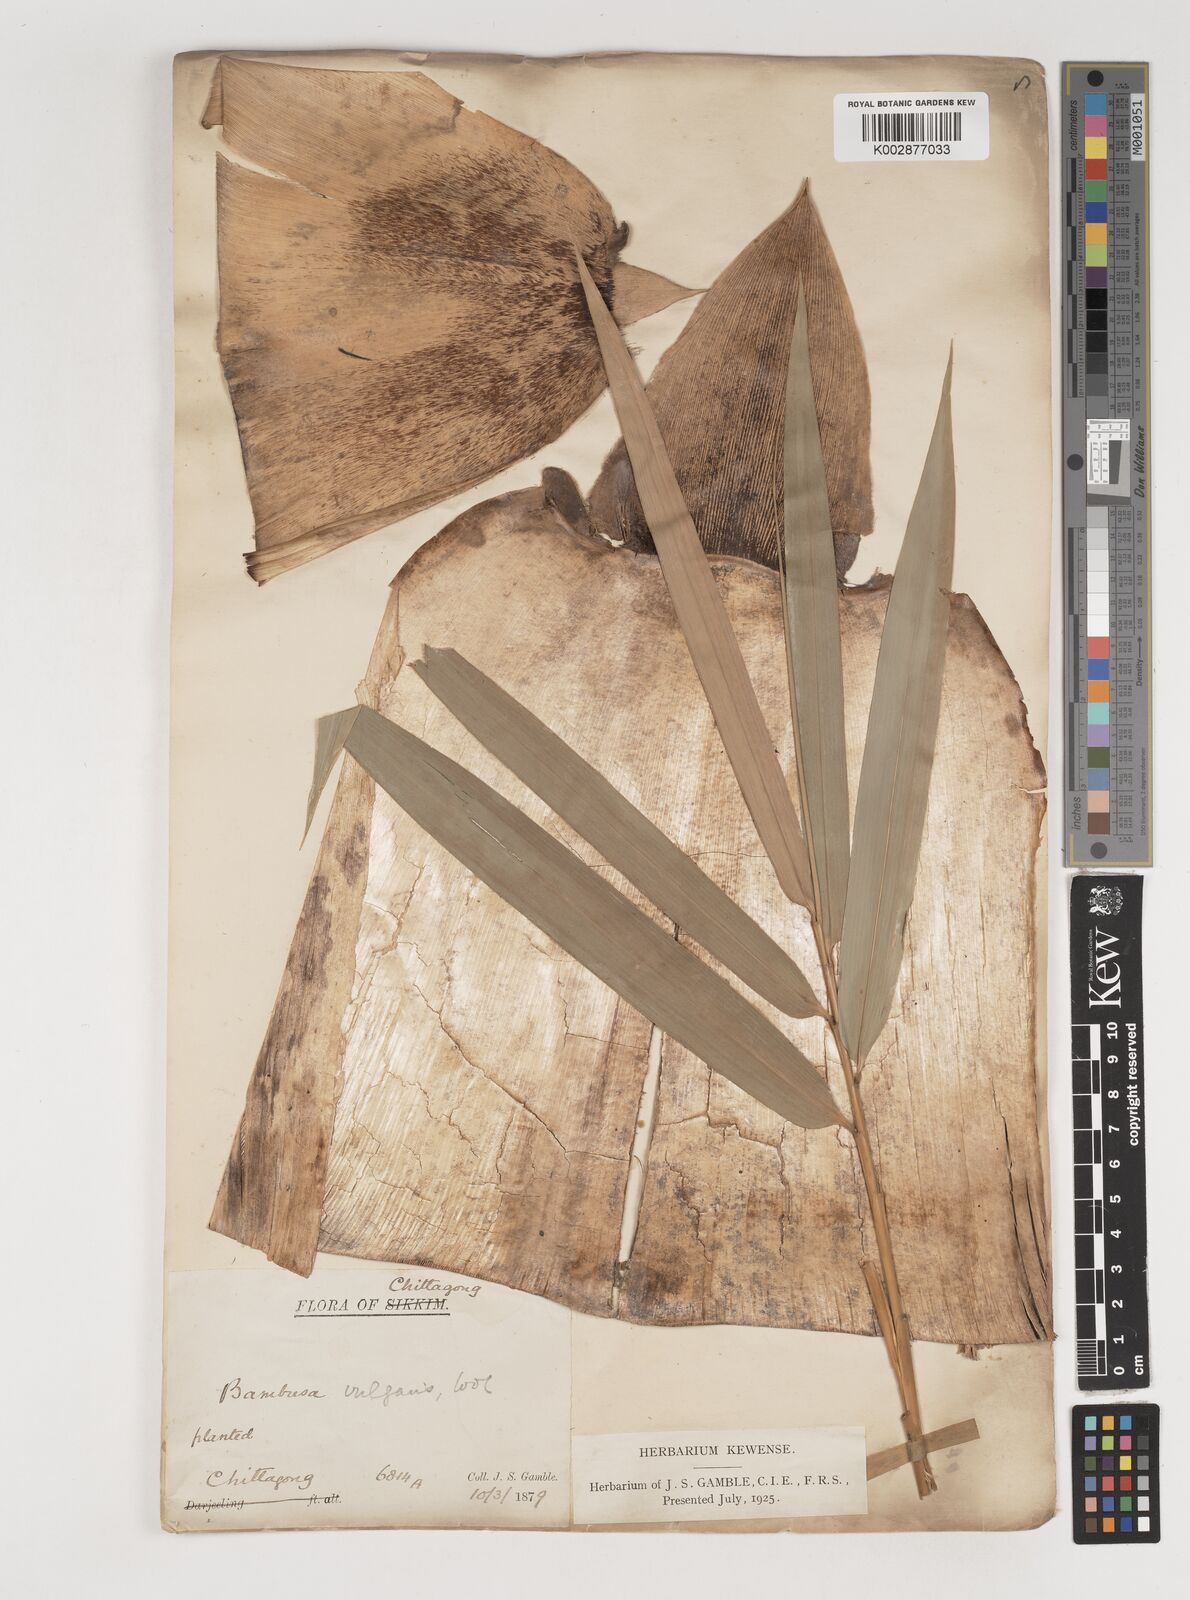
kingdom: Plantae
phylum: Tracheophyta
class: Liliopsida
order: Poales
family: Poaceae
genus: Bambusa
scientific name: Bambusa vulgaris
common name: Common bamboo
